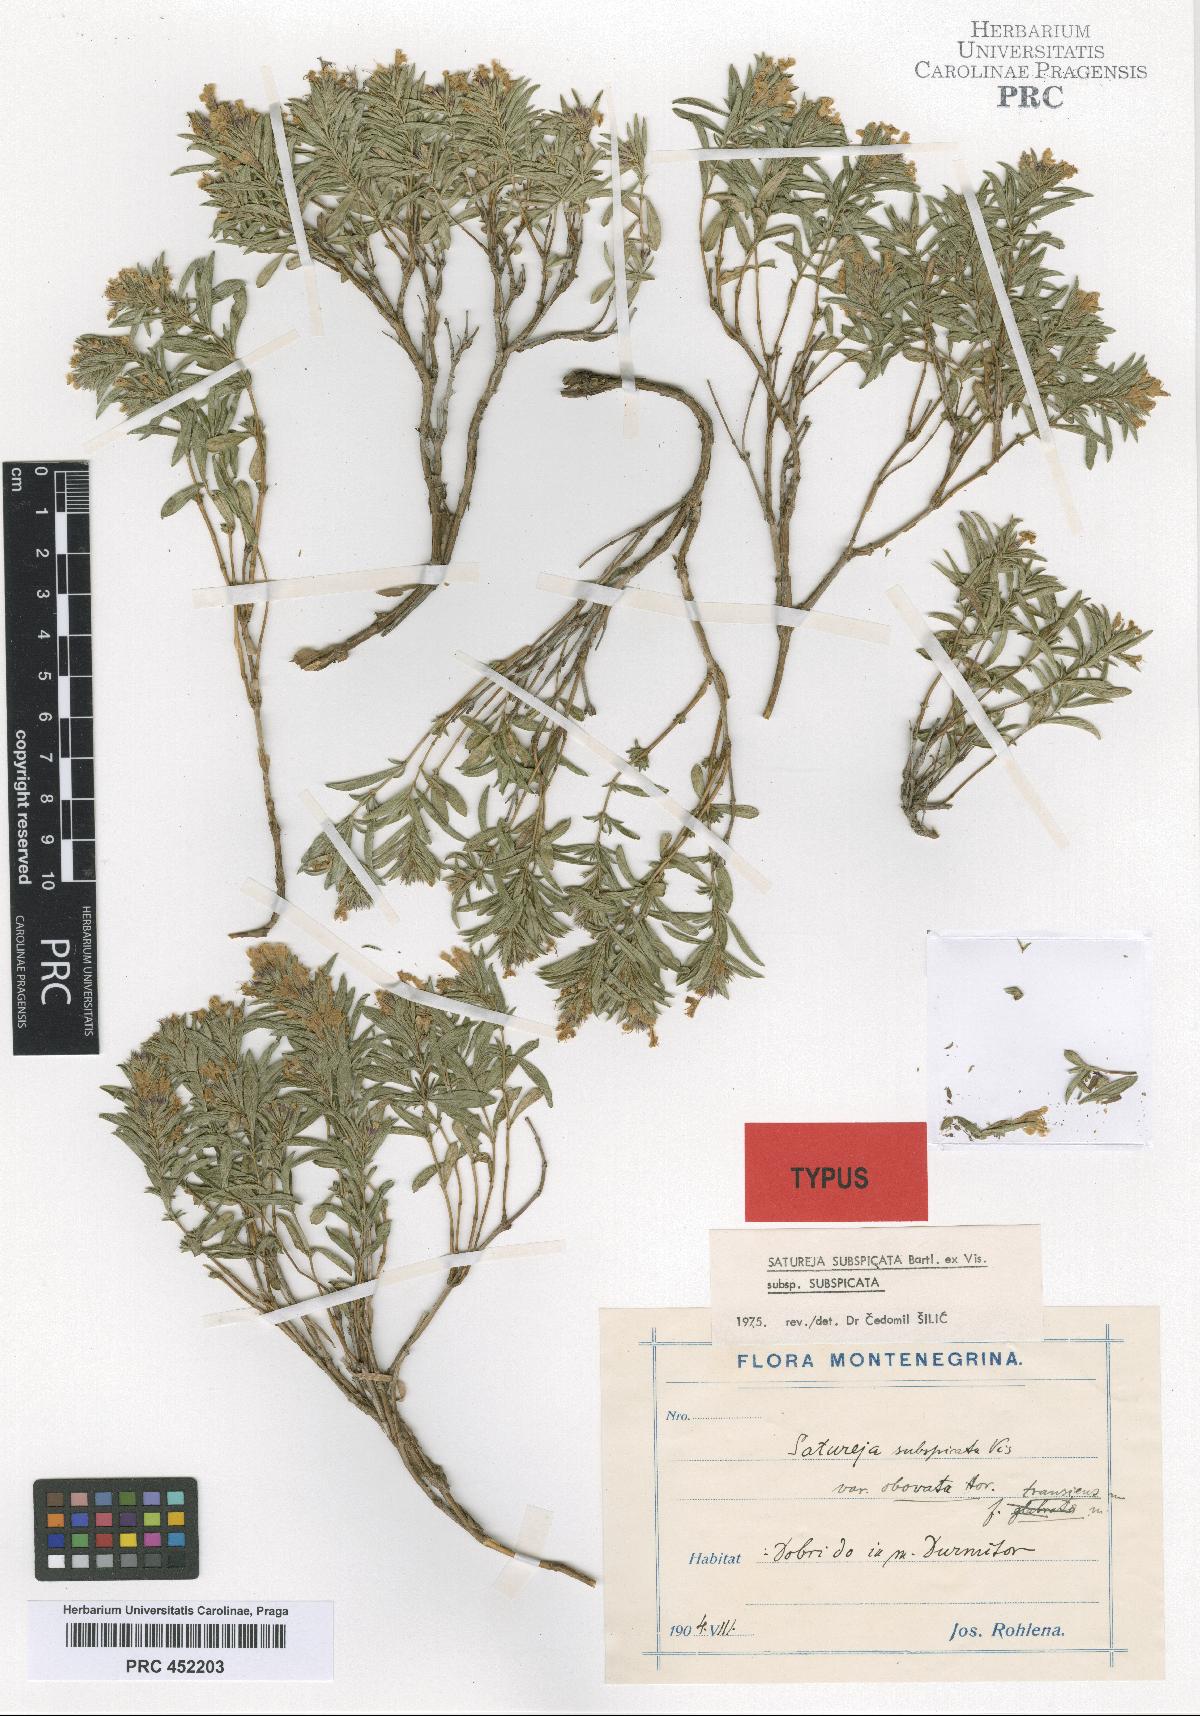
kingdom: Plantae
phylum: Tracheophyta
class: Magnoliopsida
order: Lamiales
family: Lamiaceae
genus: Satureja
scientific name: Satureja subspicata
